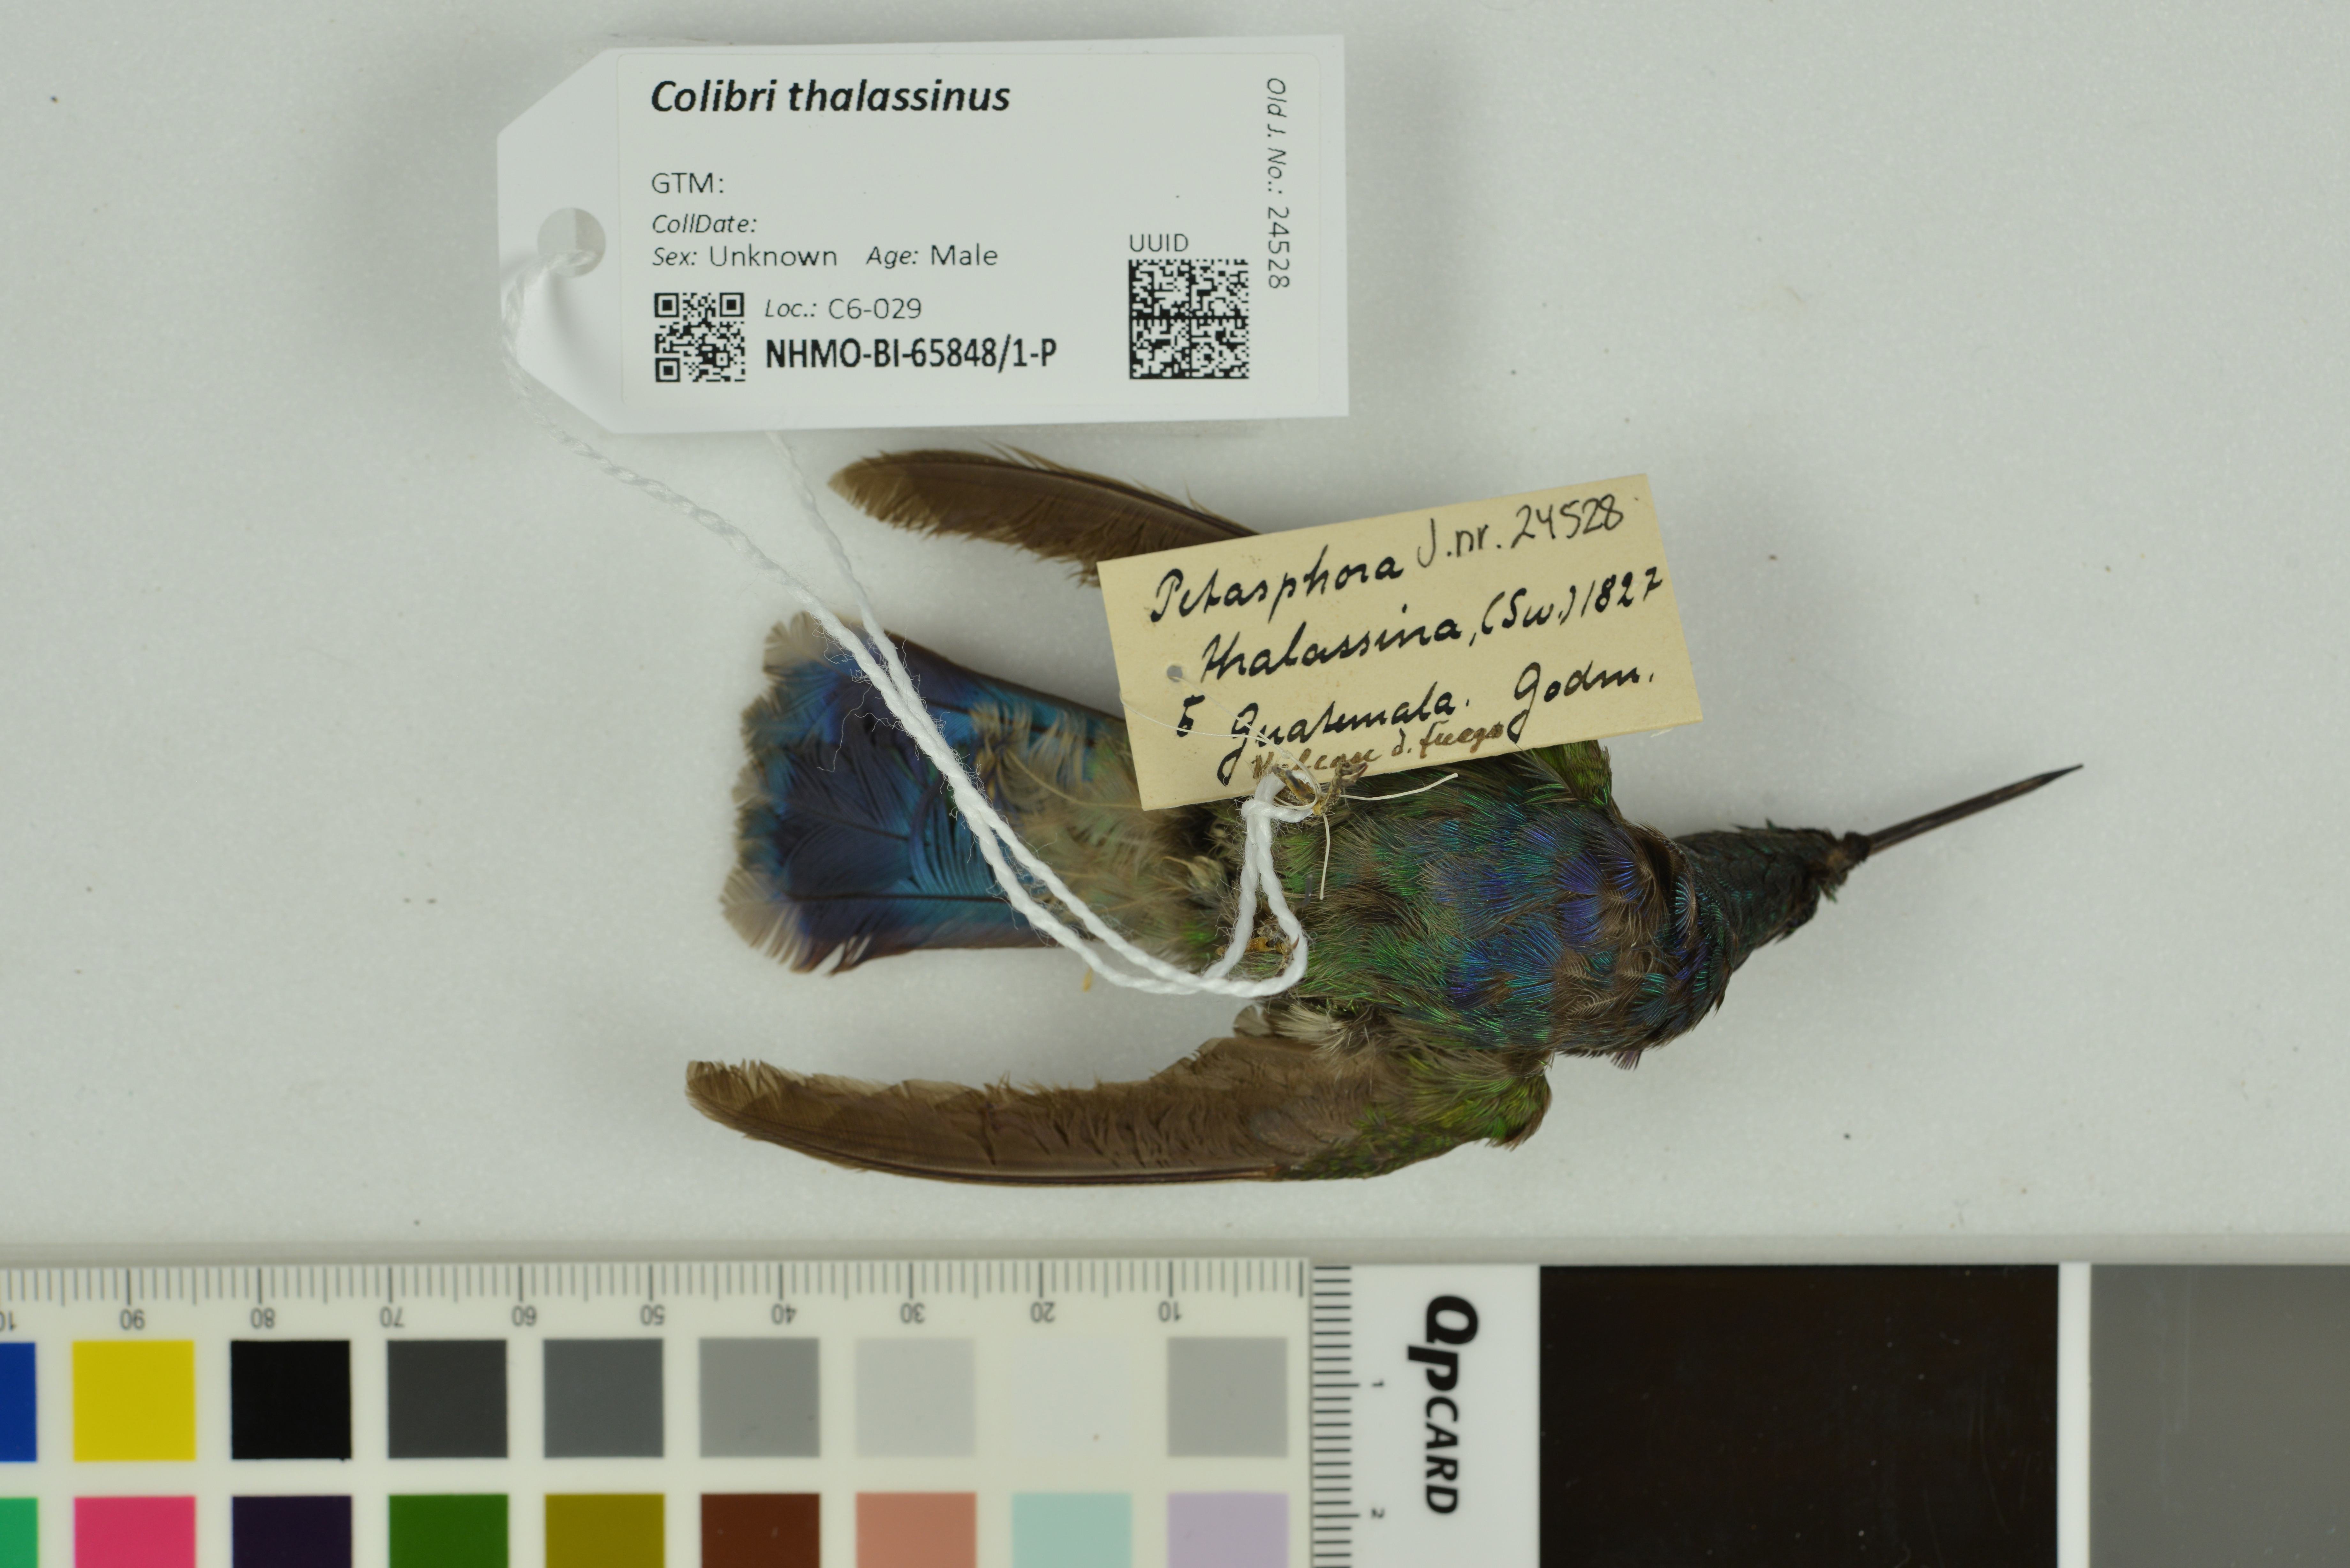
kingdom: Animalia
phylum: Chordata
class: Aves
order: Apodiformes
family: Trochilidae
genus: Colibri
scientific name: Colibri thalassinus
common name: Green violetear
